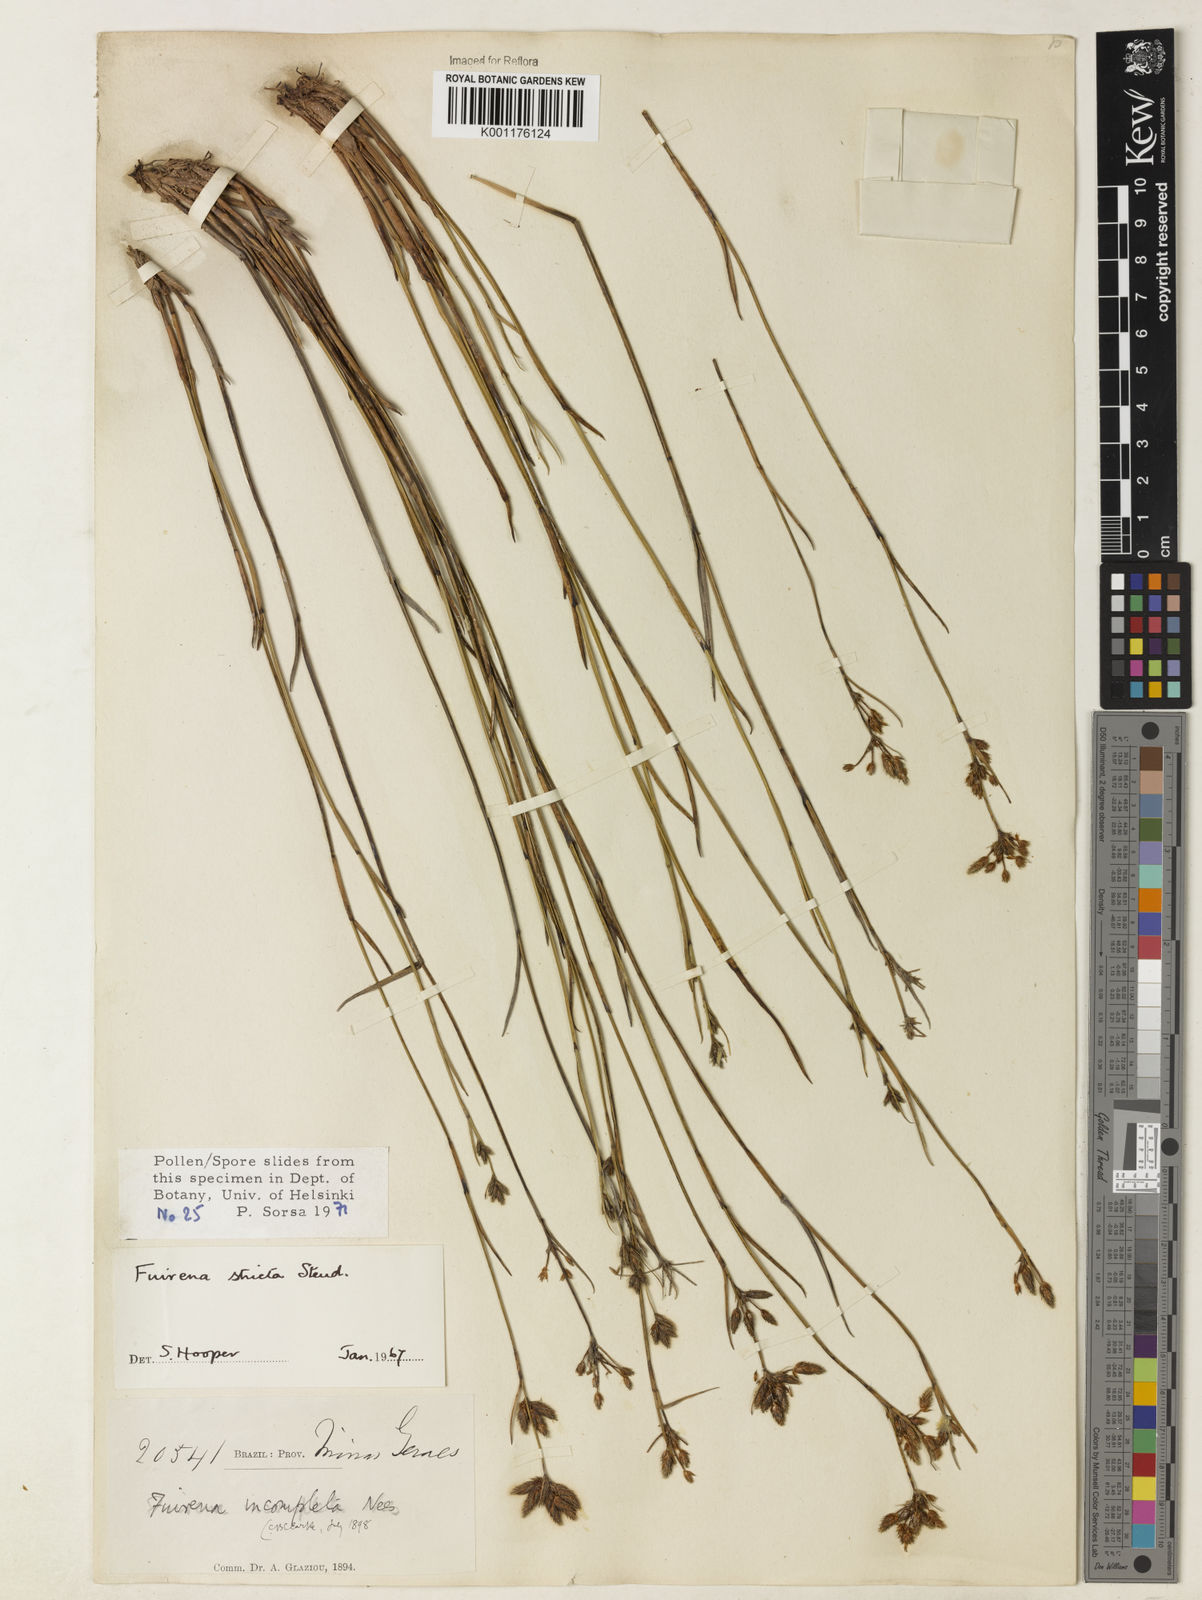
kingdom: Plantae
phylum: Tracheophyta
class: Liliopsida
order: Poales
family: Cyperaceae
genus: Fuirena
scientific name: Fuirena stricta
